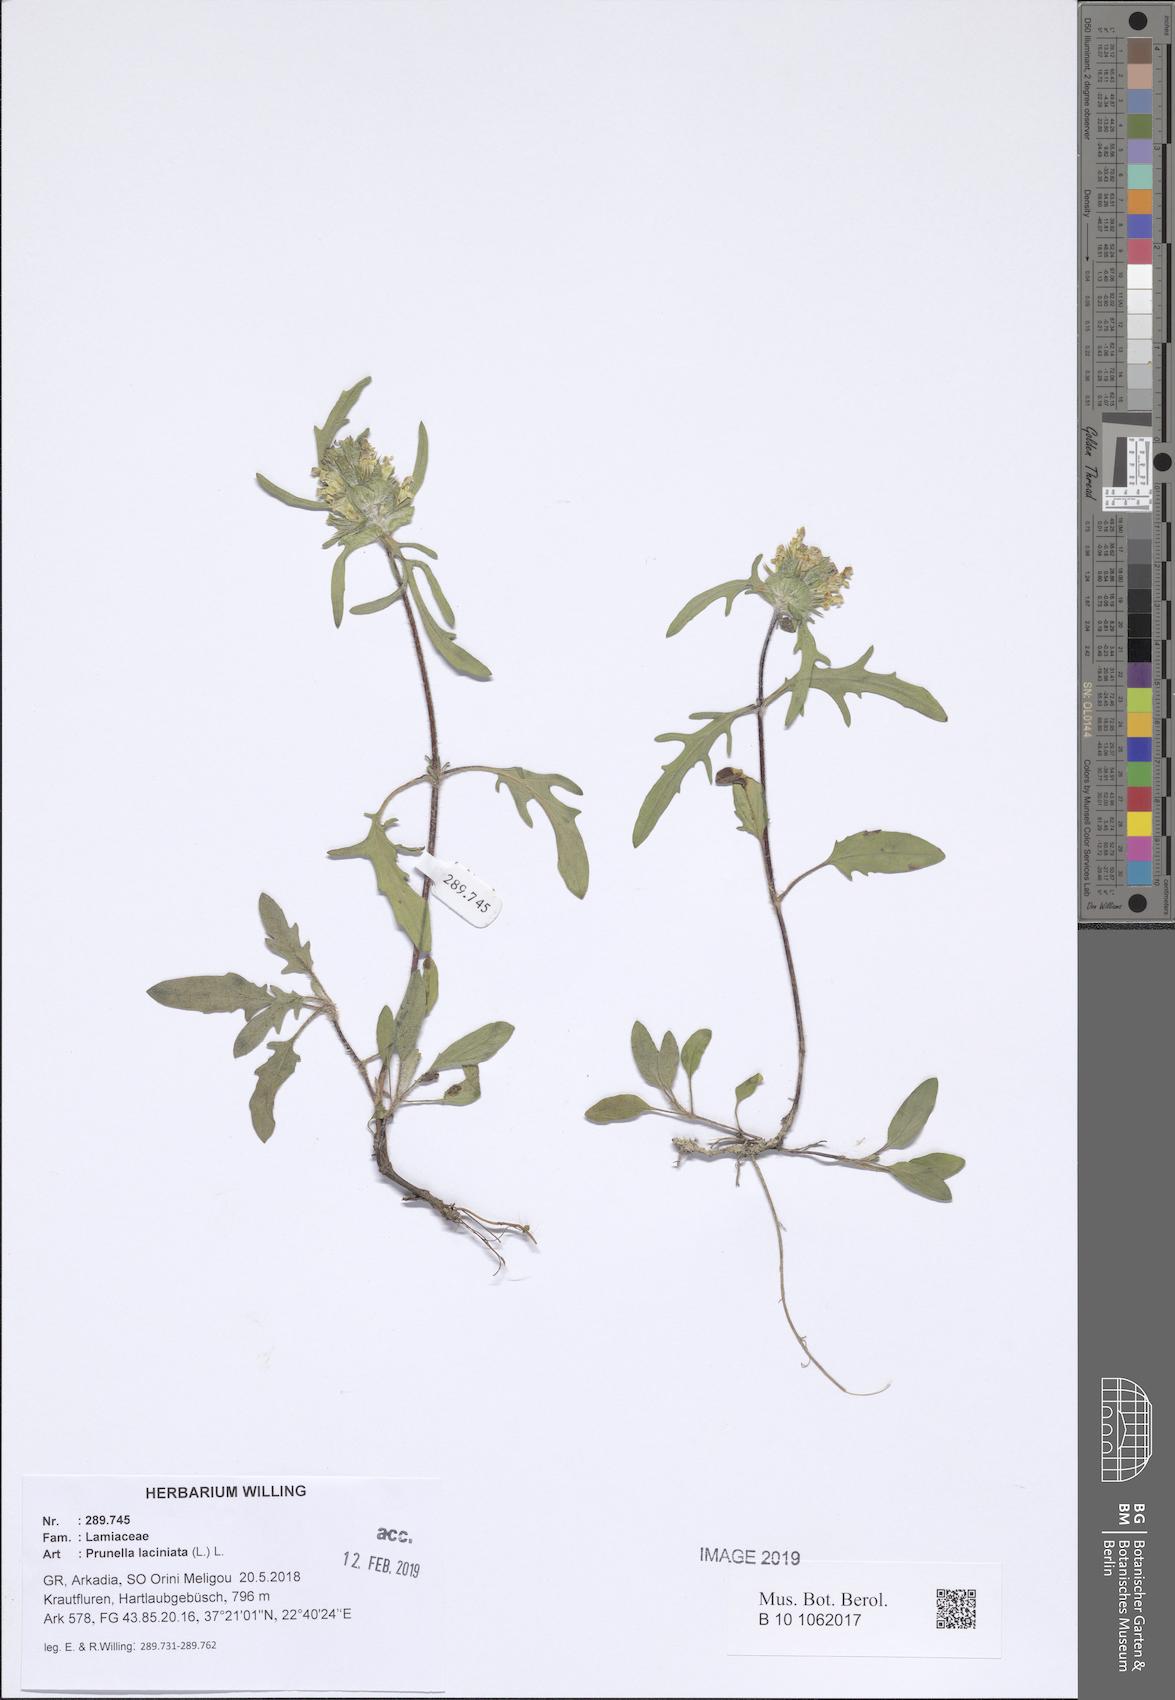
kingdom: Plantae
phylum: Tracheophyta
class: Magnoliopsida
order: Lamiales
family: Lamiaceae
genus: Prunella
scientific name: Prunella laciniata
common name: Cut-leaved selfheal
